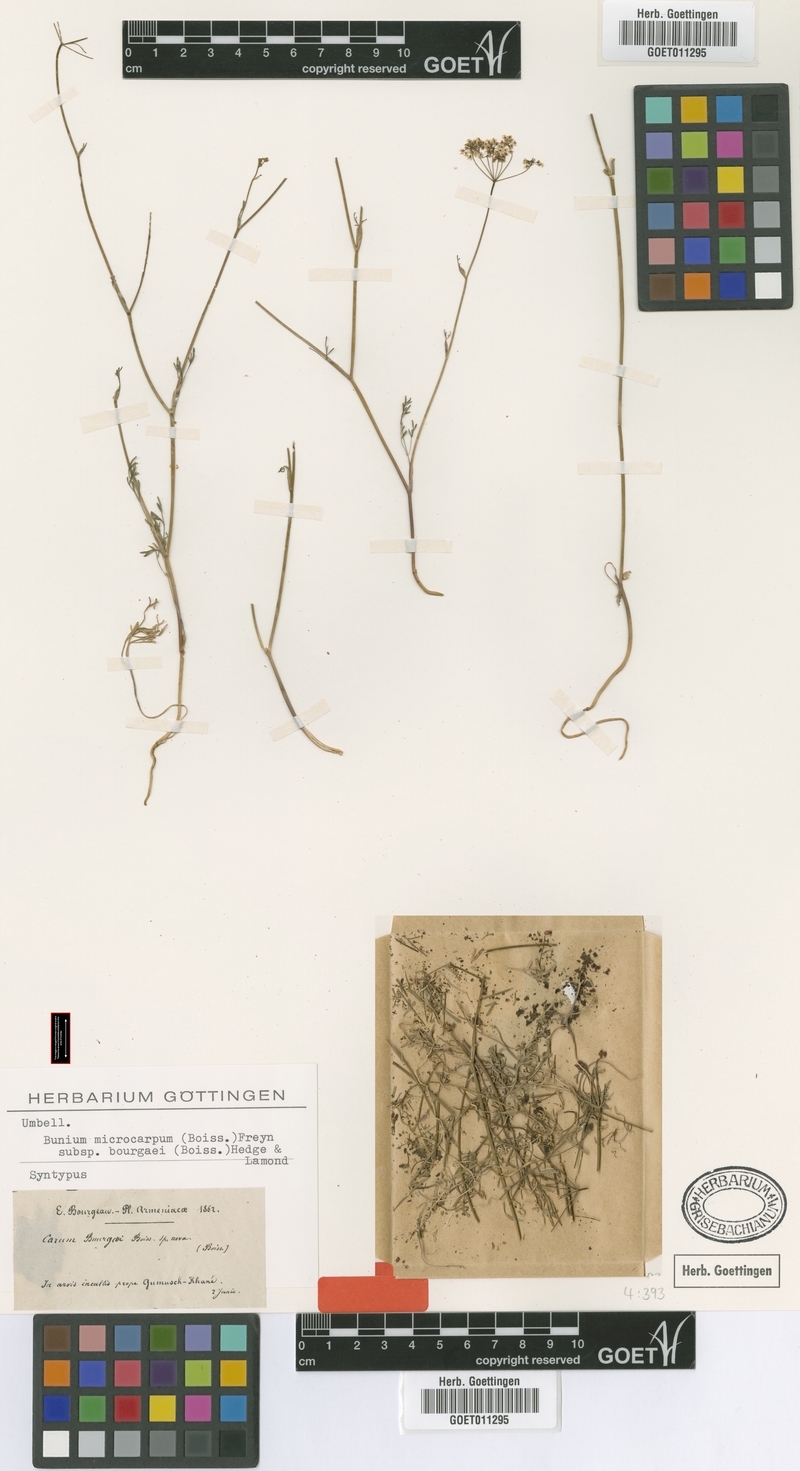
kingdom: Plantae
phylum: Tracheophyta
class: Magnoliopsida
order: Apiales
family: Apiaceae
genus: Bunium
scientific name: Bunium microcarpum
